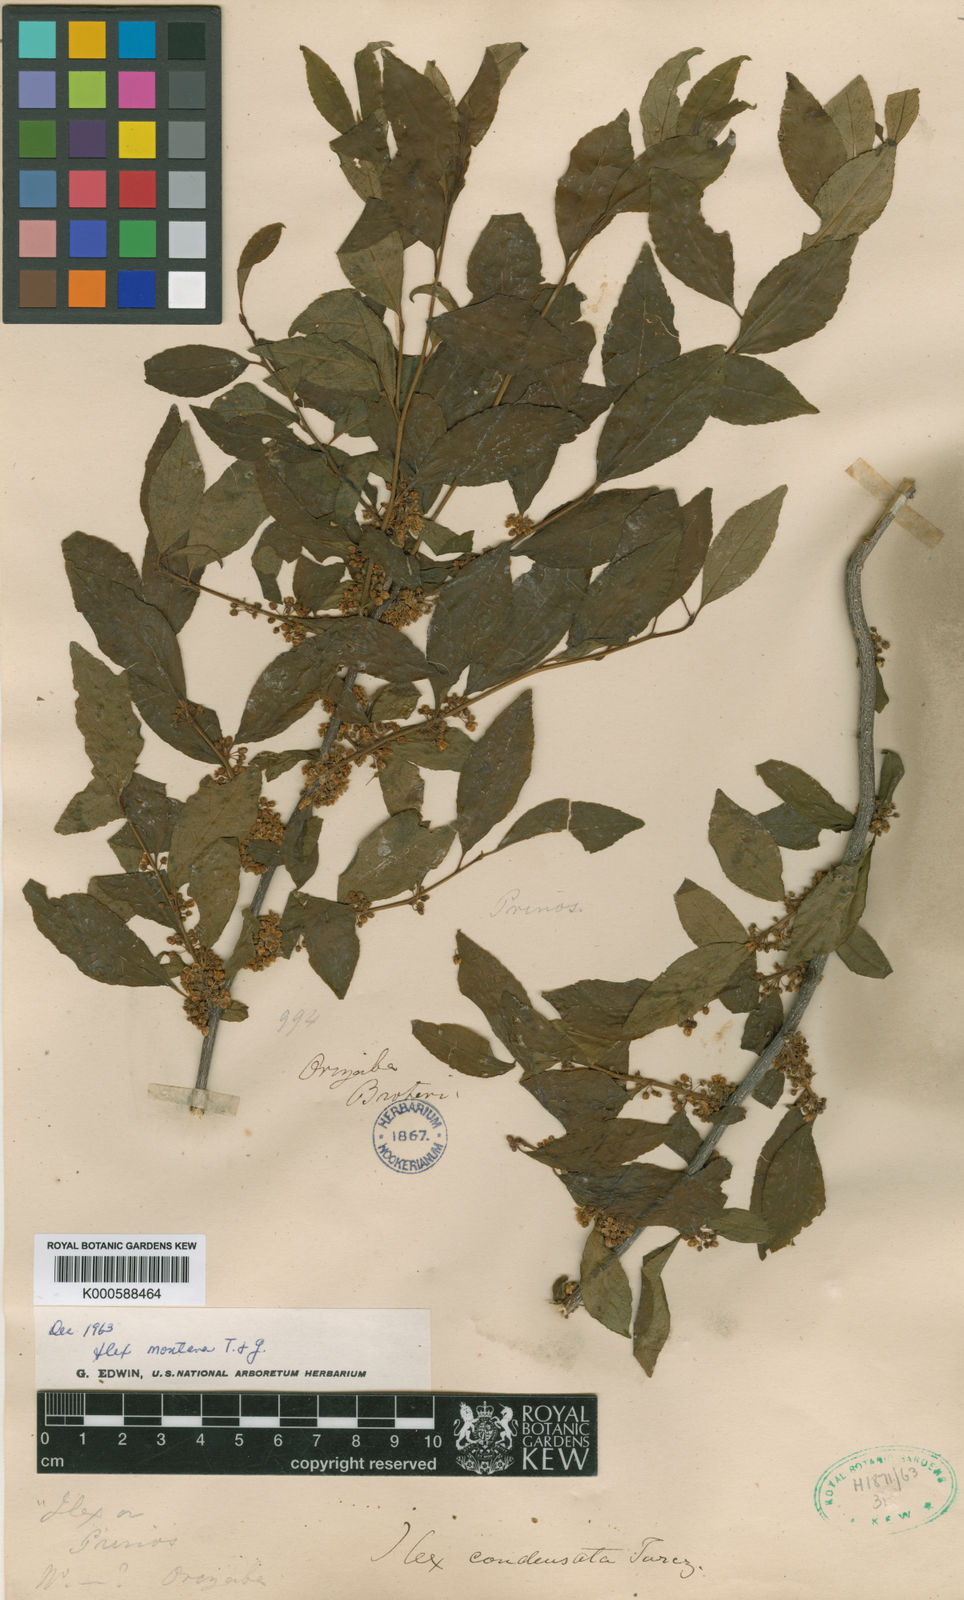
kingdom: Plantae
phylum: Tracheophyta
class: Magnoliopsida
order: Aquifoliales
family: Aquifoliaceae
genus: Ilex
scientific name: Ilex ambigua
